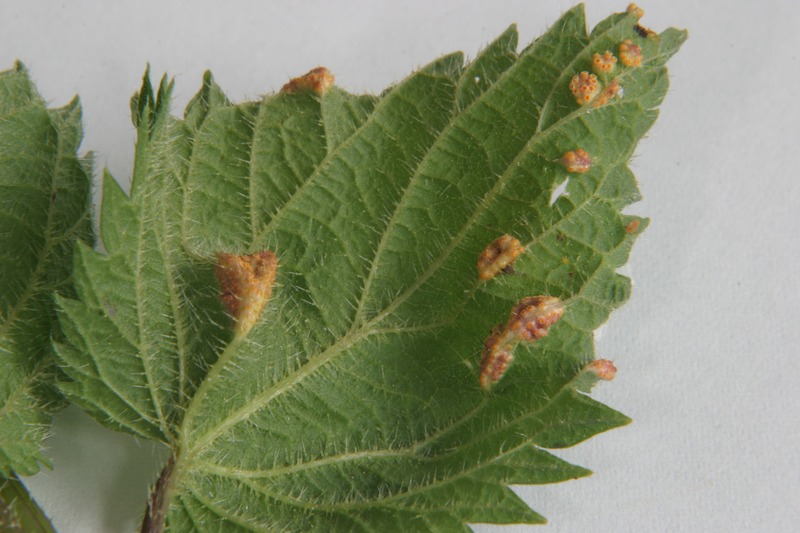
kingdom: Fungi
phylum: Basidiomycota
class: Pucciniomycetes
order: Pucciniales
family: Pucciniaceae
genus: Puccinia
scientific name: Puccinia urticata
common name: Nettle clustercup rust fungus
